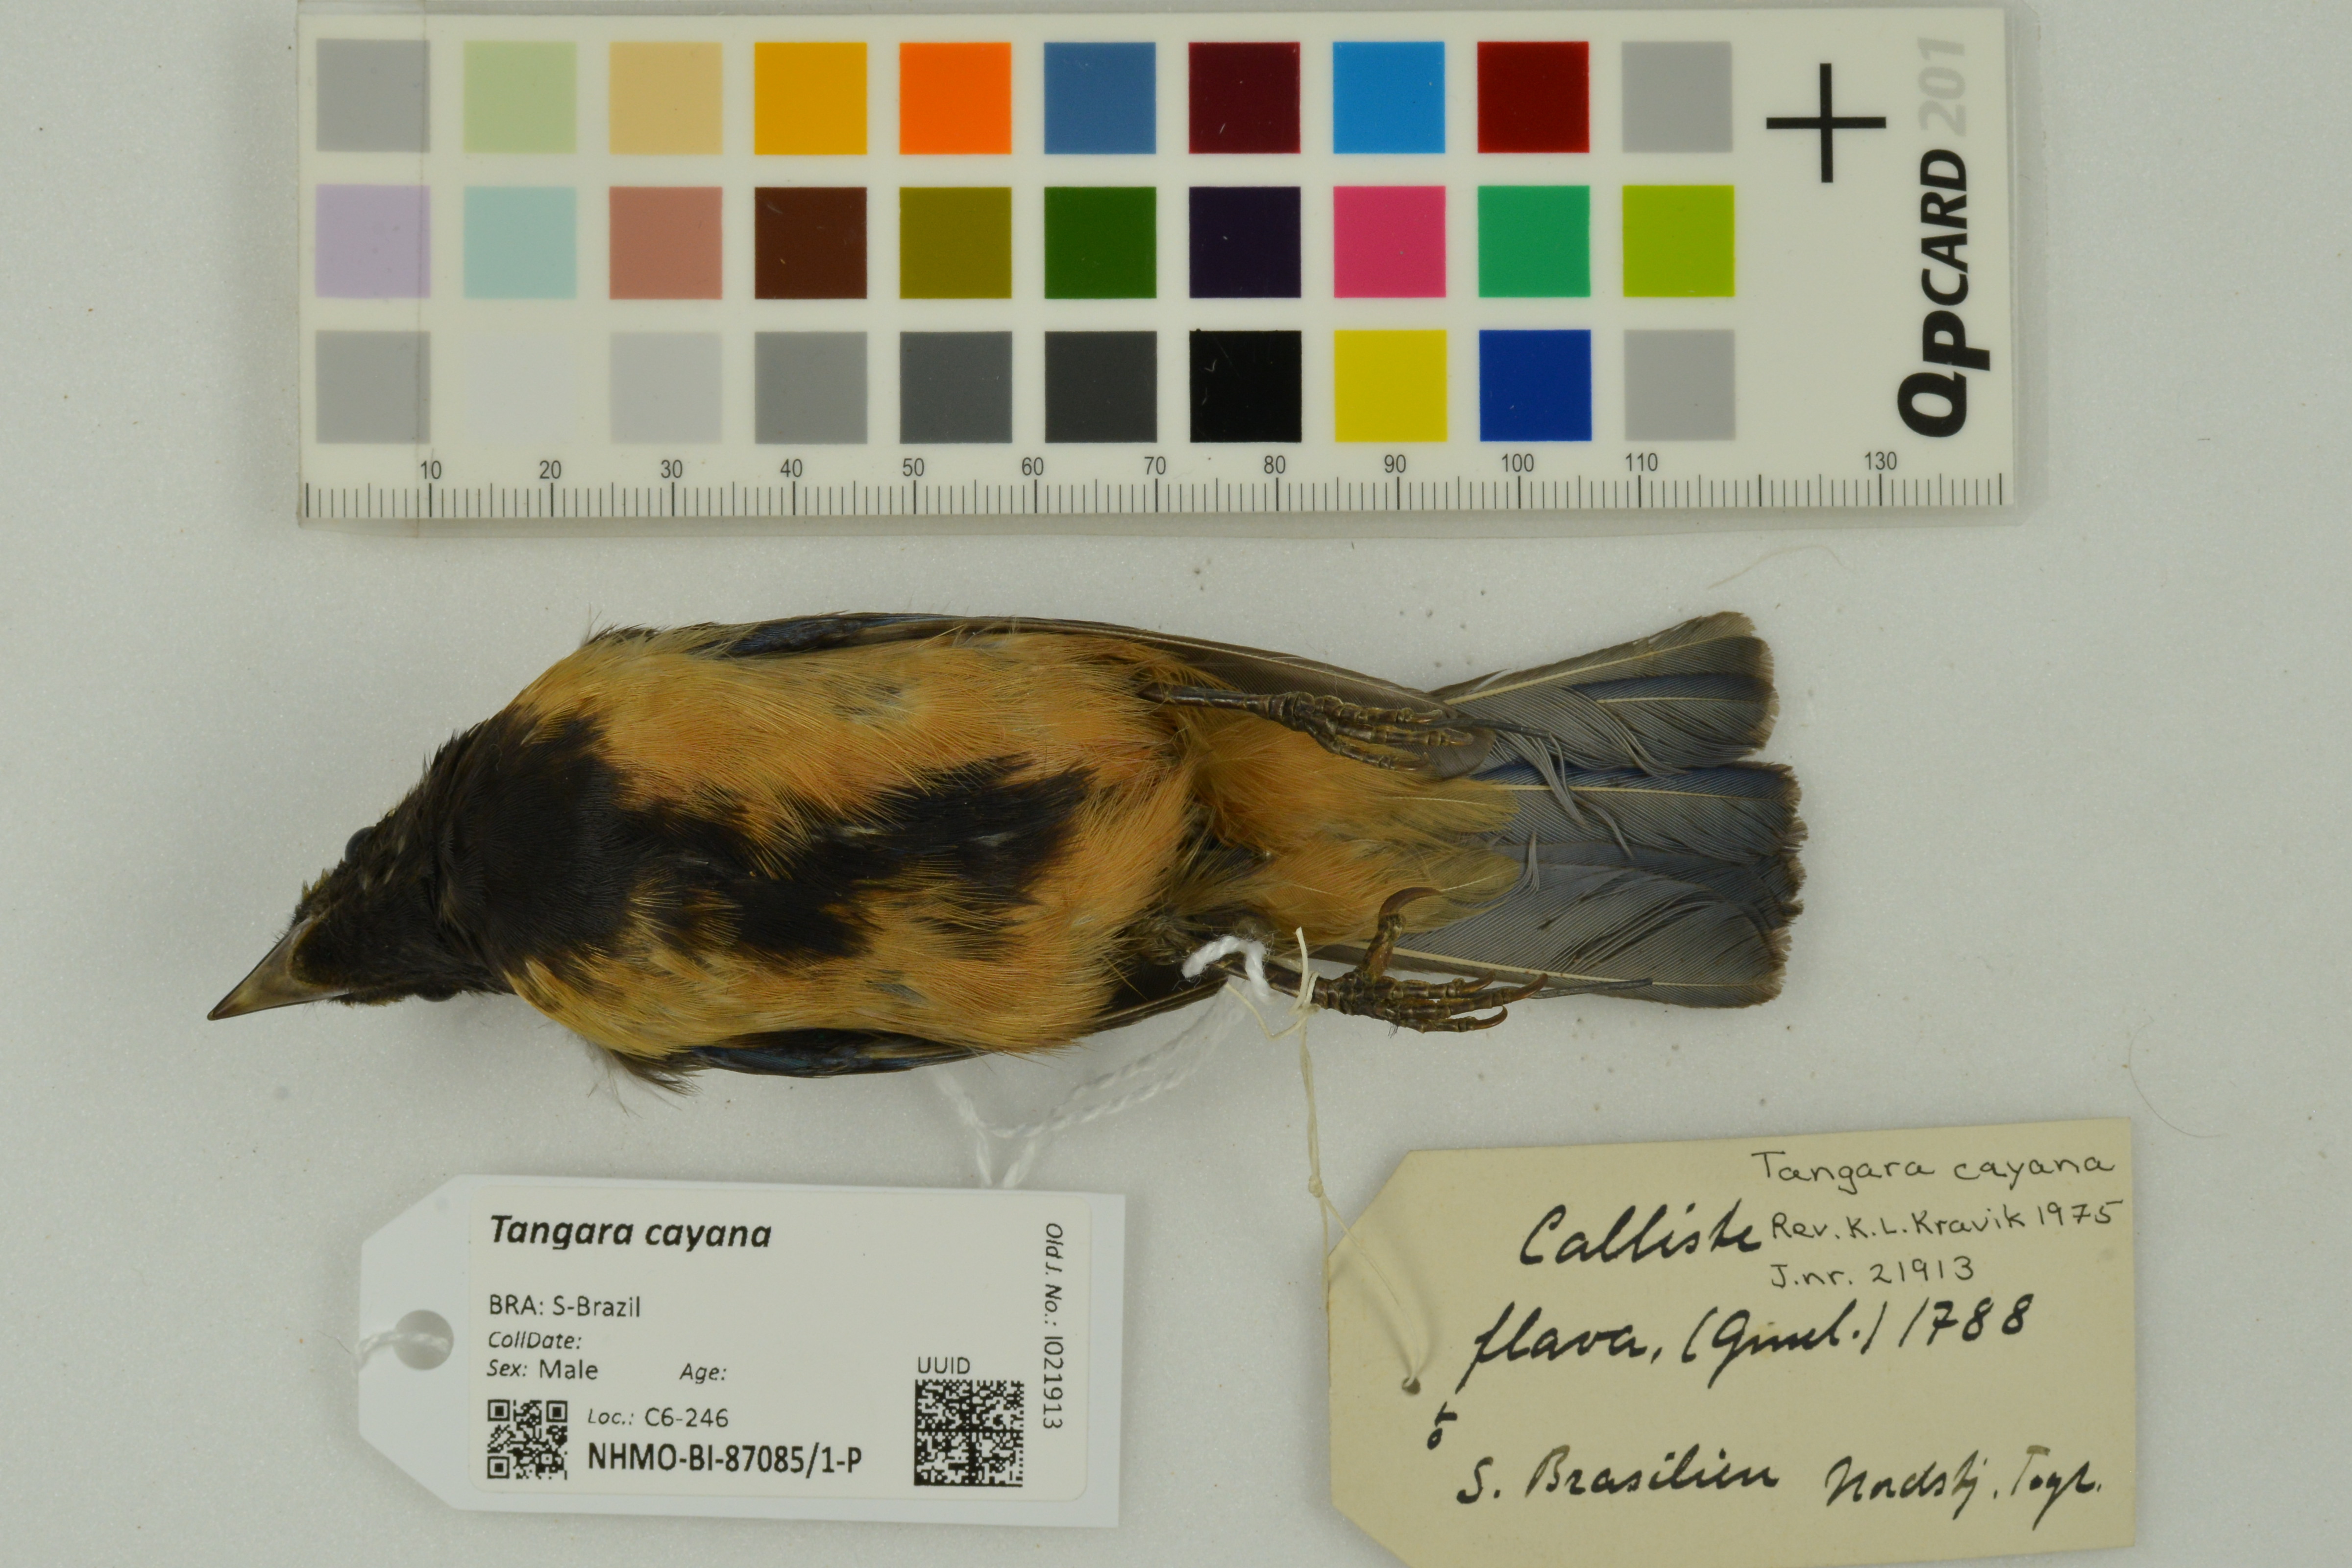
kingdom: Animalia
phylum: Chordata
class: Aves
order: Passeriformes
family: Thraupidae
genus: Stilpnia
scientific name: Stilpnia cayana
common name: Burnished-buff tanager
